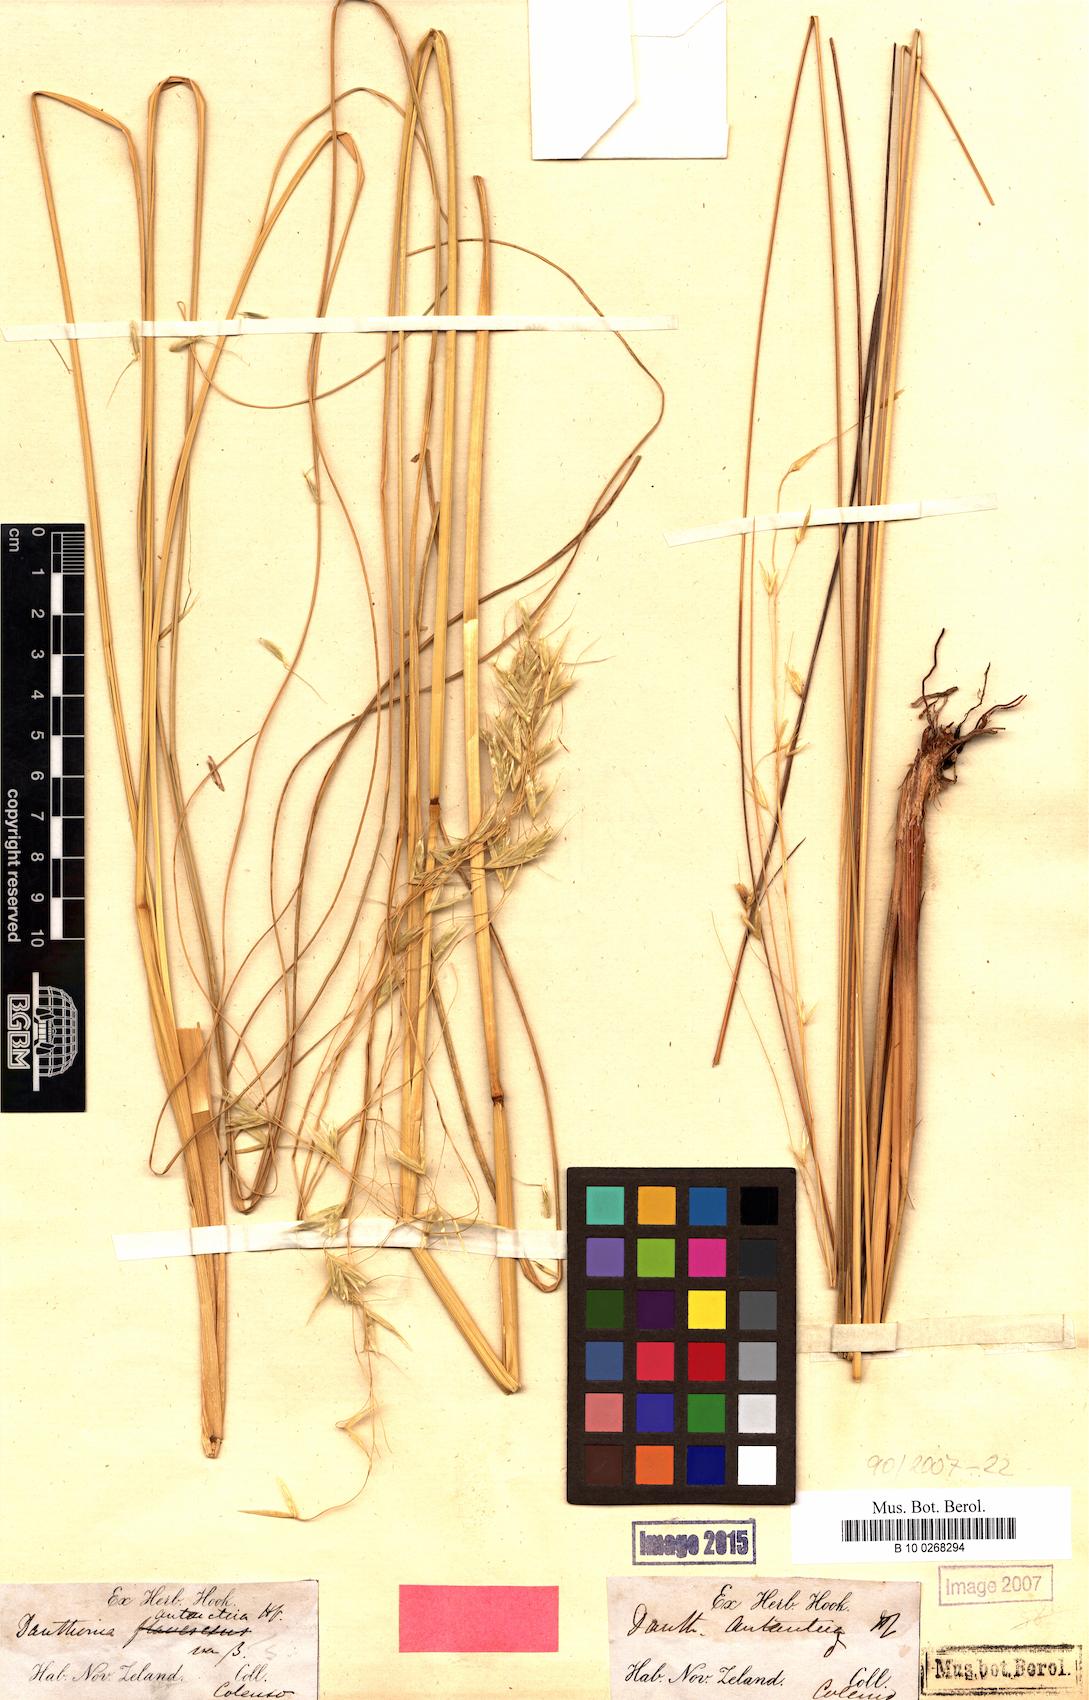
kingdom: Plantae
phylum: Tracheophyta
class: Liliopsida
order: Poales
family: Poaceae
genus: Tenaxia
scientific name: Tenaxia dura
